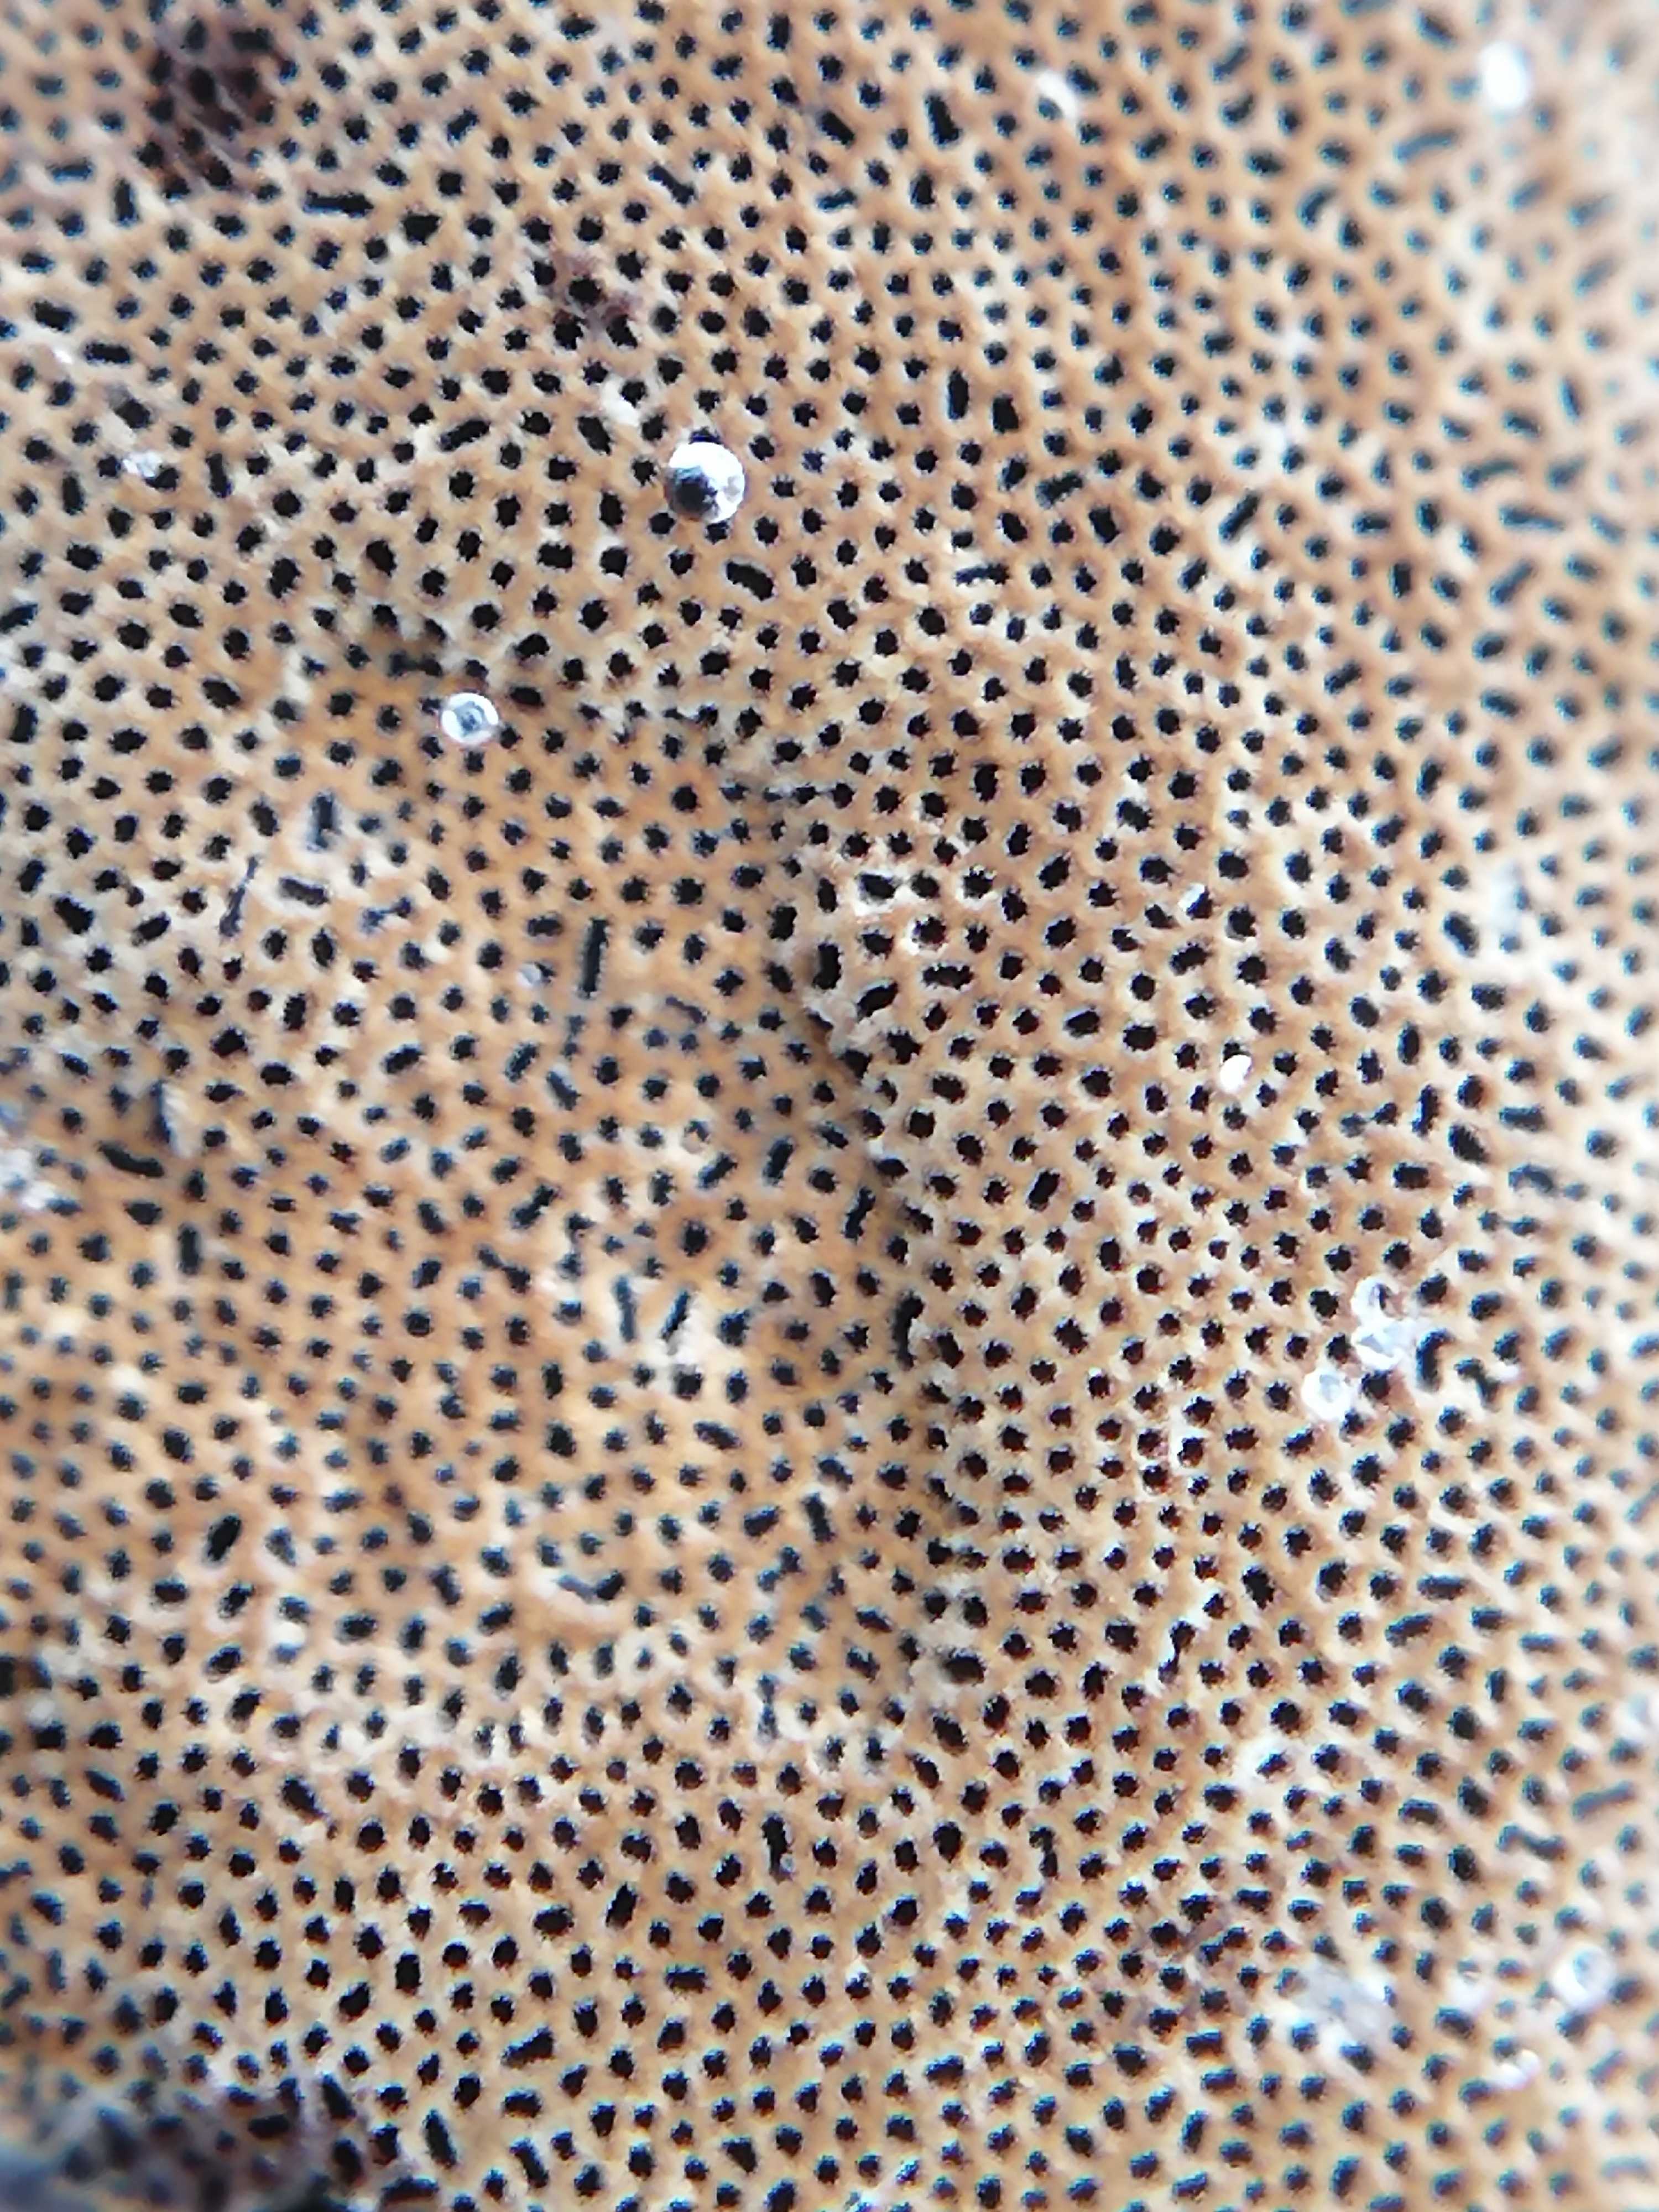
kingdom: Fungi
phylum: Basidiomycota
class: Agaricomycetes
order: Hymenochaetales
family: Hymenochaetaceae
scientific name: Hymenochaetaceae
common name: børstesvampfamilien
